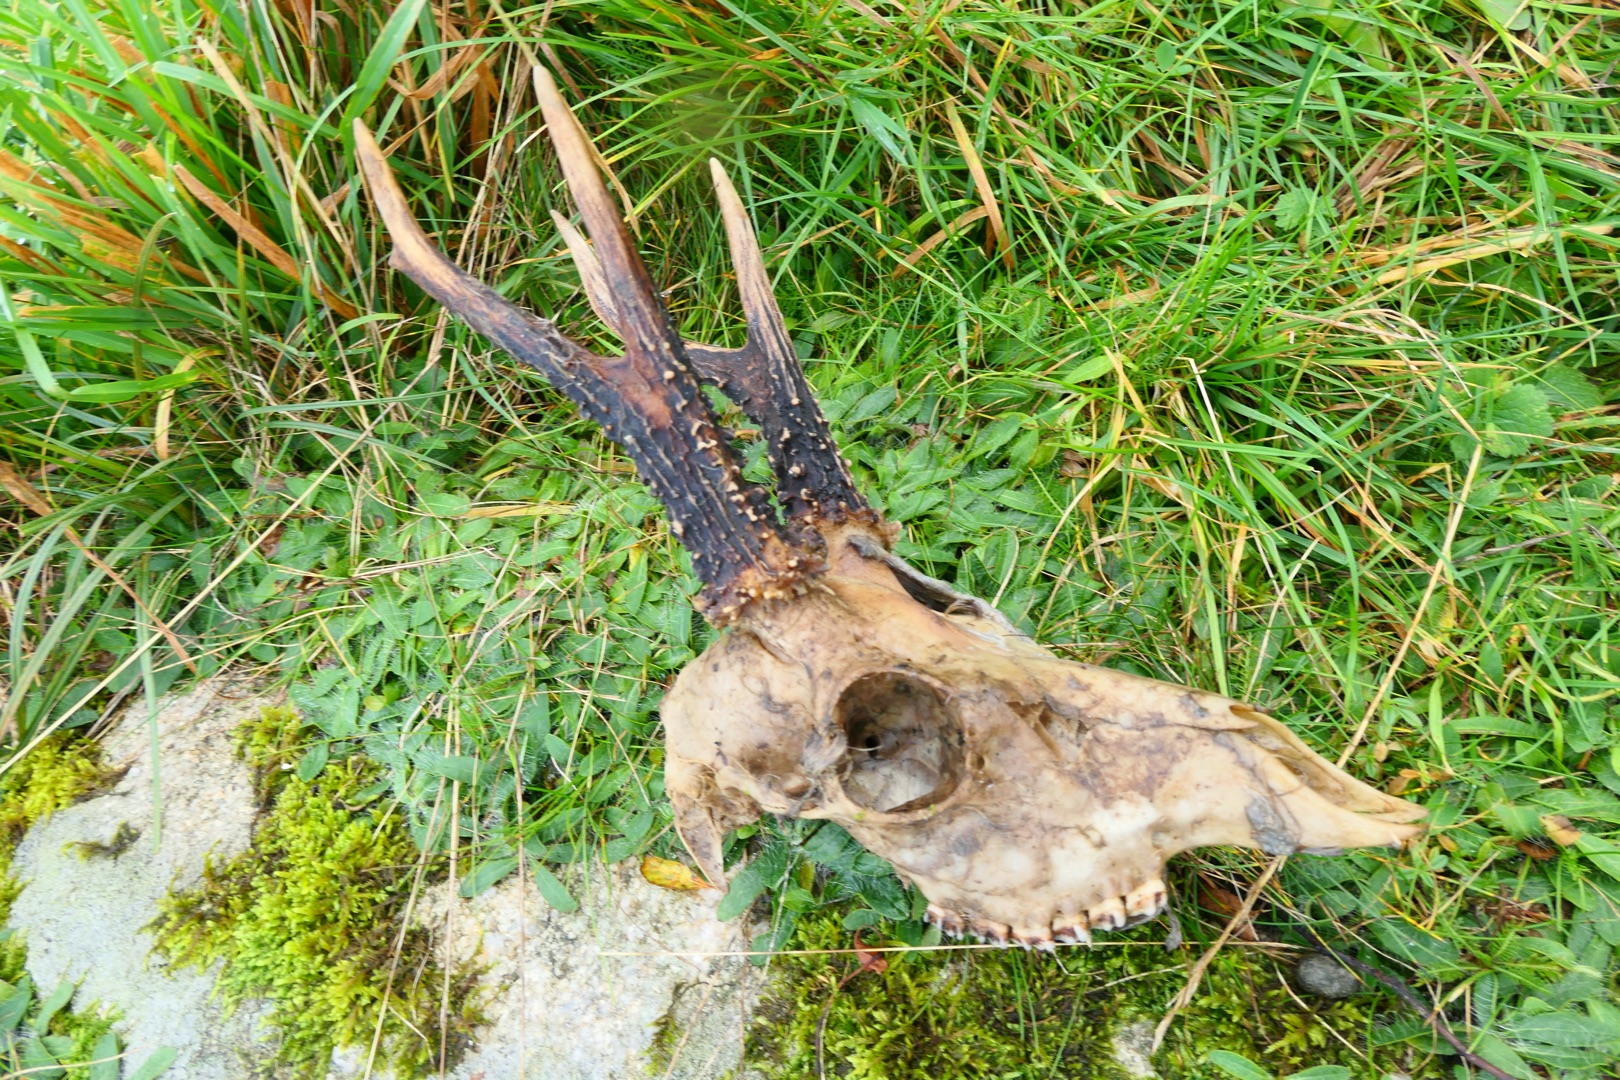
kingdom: Animalia
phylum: Chordata
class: Mammalia
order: Artiodactyla
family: Cervidae
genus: Capreolus
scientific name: Capreolus capreolus
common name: Rådyr
